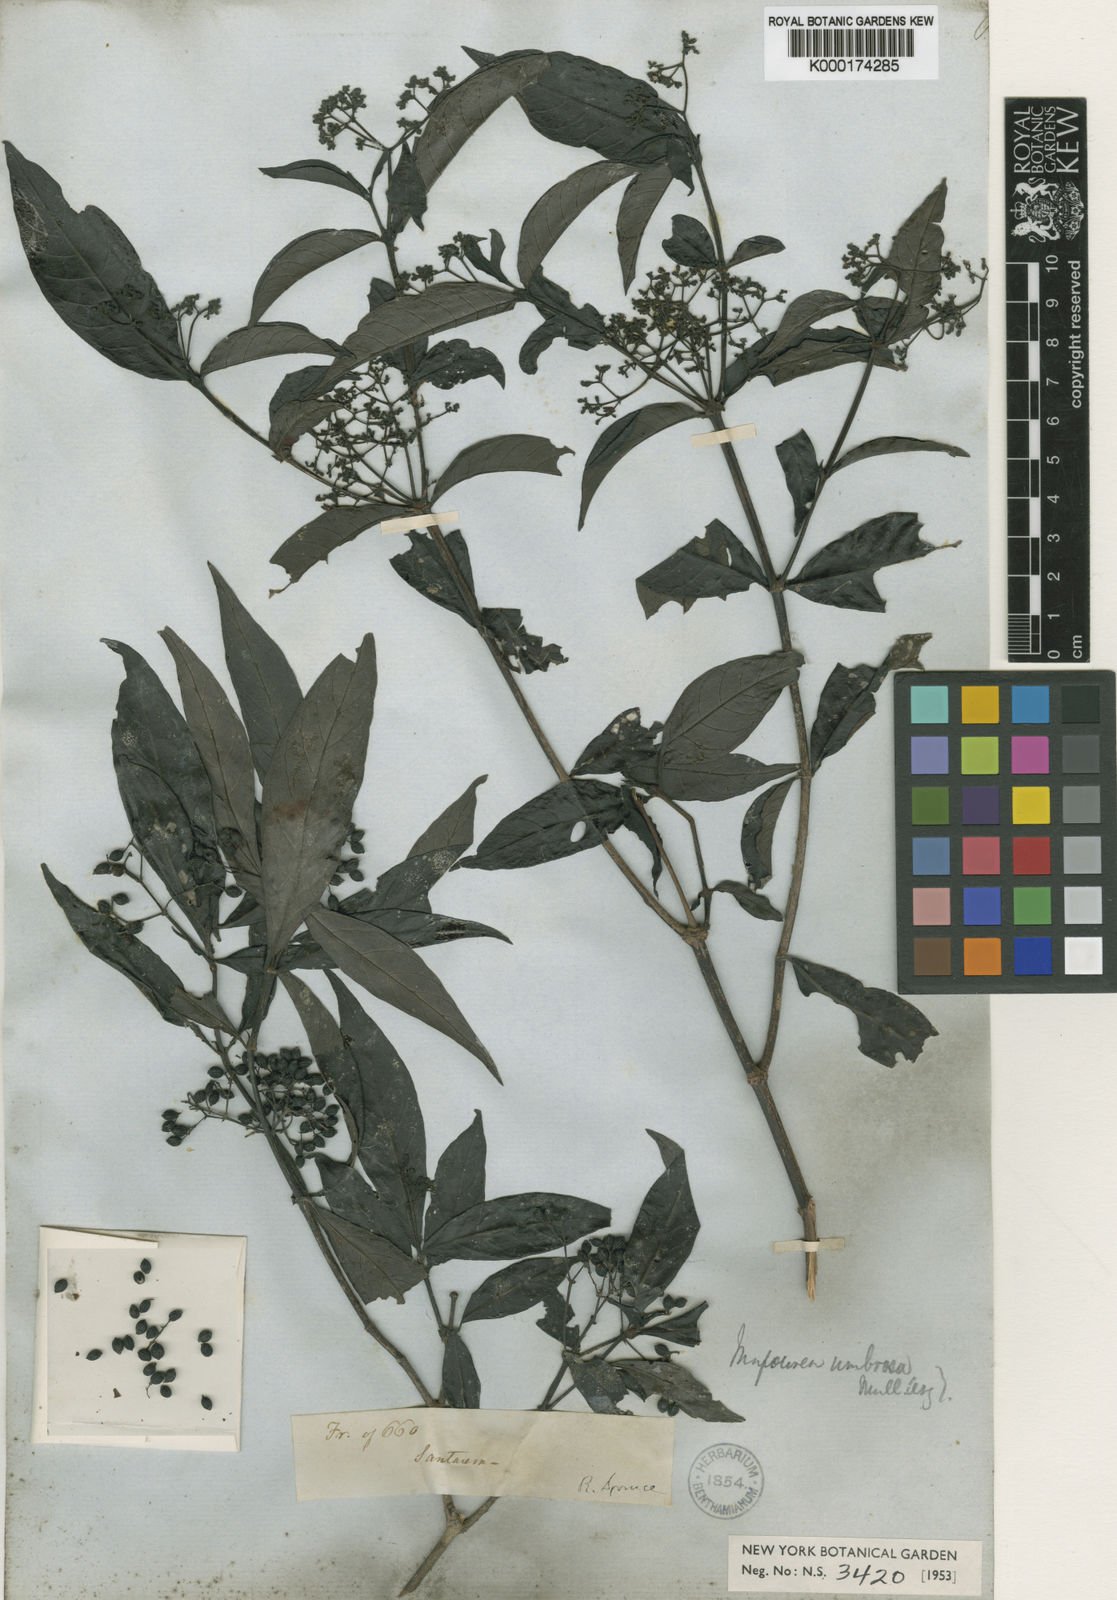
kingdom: Plantae
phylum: Tracheophyta
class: Magnoliopsida
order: Gentianales
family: Rubiaceae
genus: Psychotria
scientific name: Psychotria borjensis
